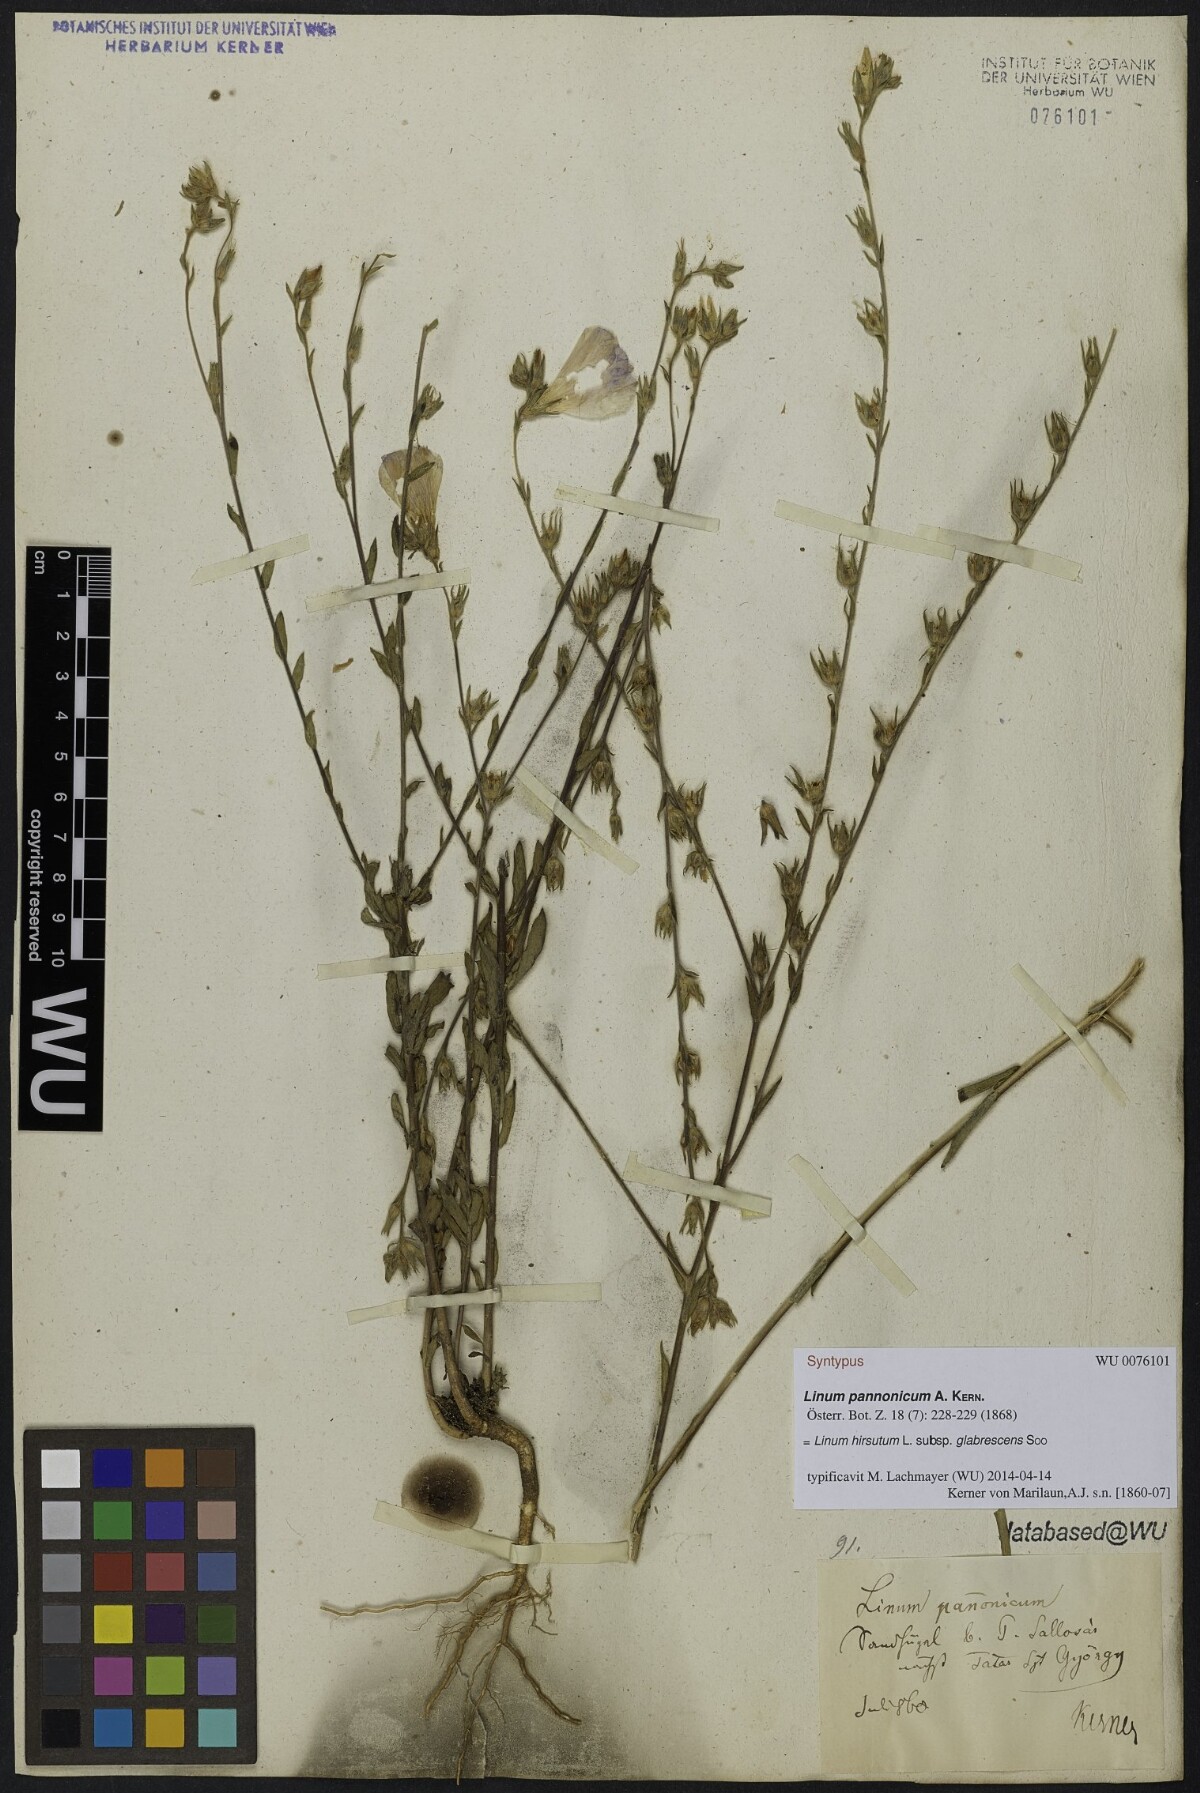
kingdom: Plantae
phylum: Tracheophyta
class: Magnoliopsida
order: Malpighiales
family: Linaceae
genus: Linum
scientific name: Linum hirsutum
